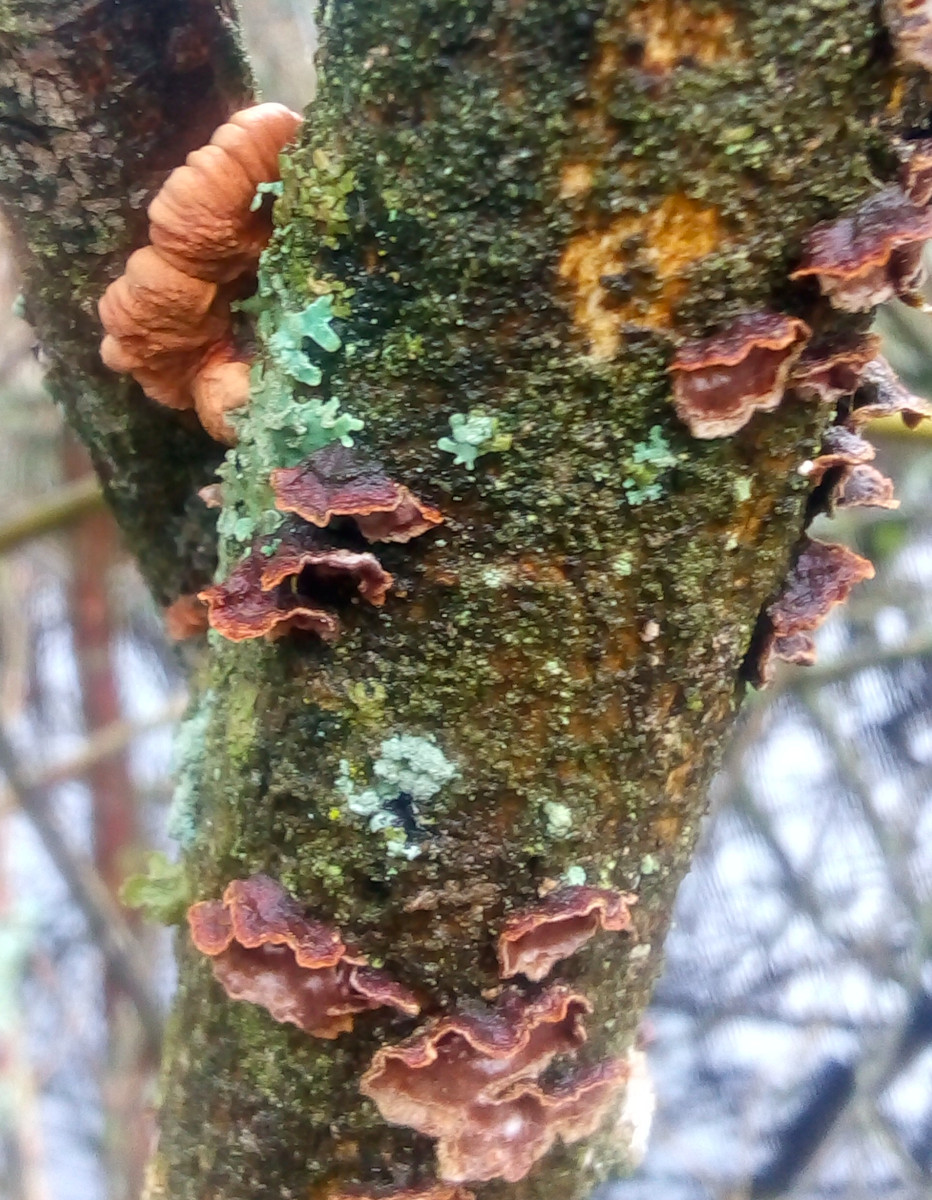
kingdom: Fungi
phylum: Basidiomycota
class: Agaricomycetes
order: Hymenochaetales
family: Hymenochaetaceae
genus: Hydnoporia
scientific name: Hydnoporia tabacina
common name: tobaksbrun ruslædersvamp
